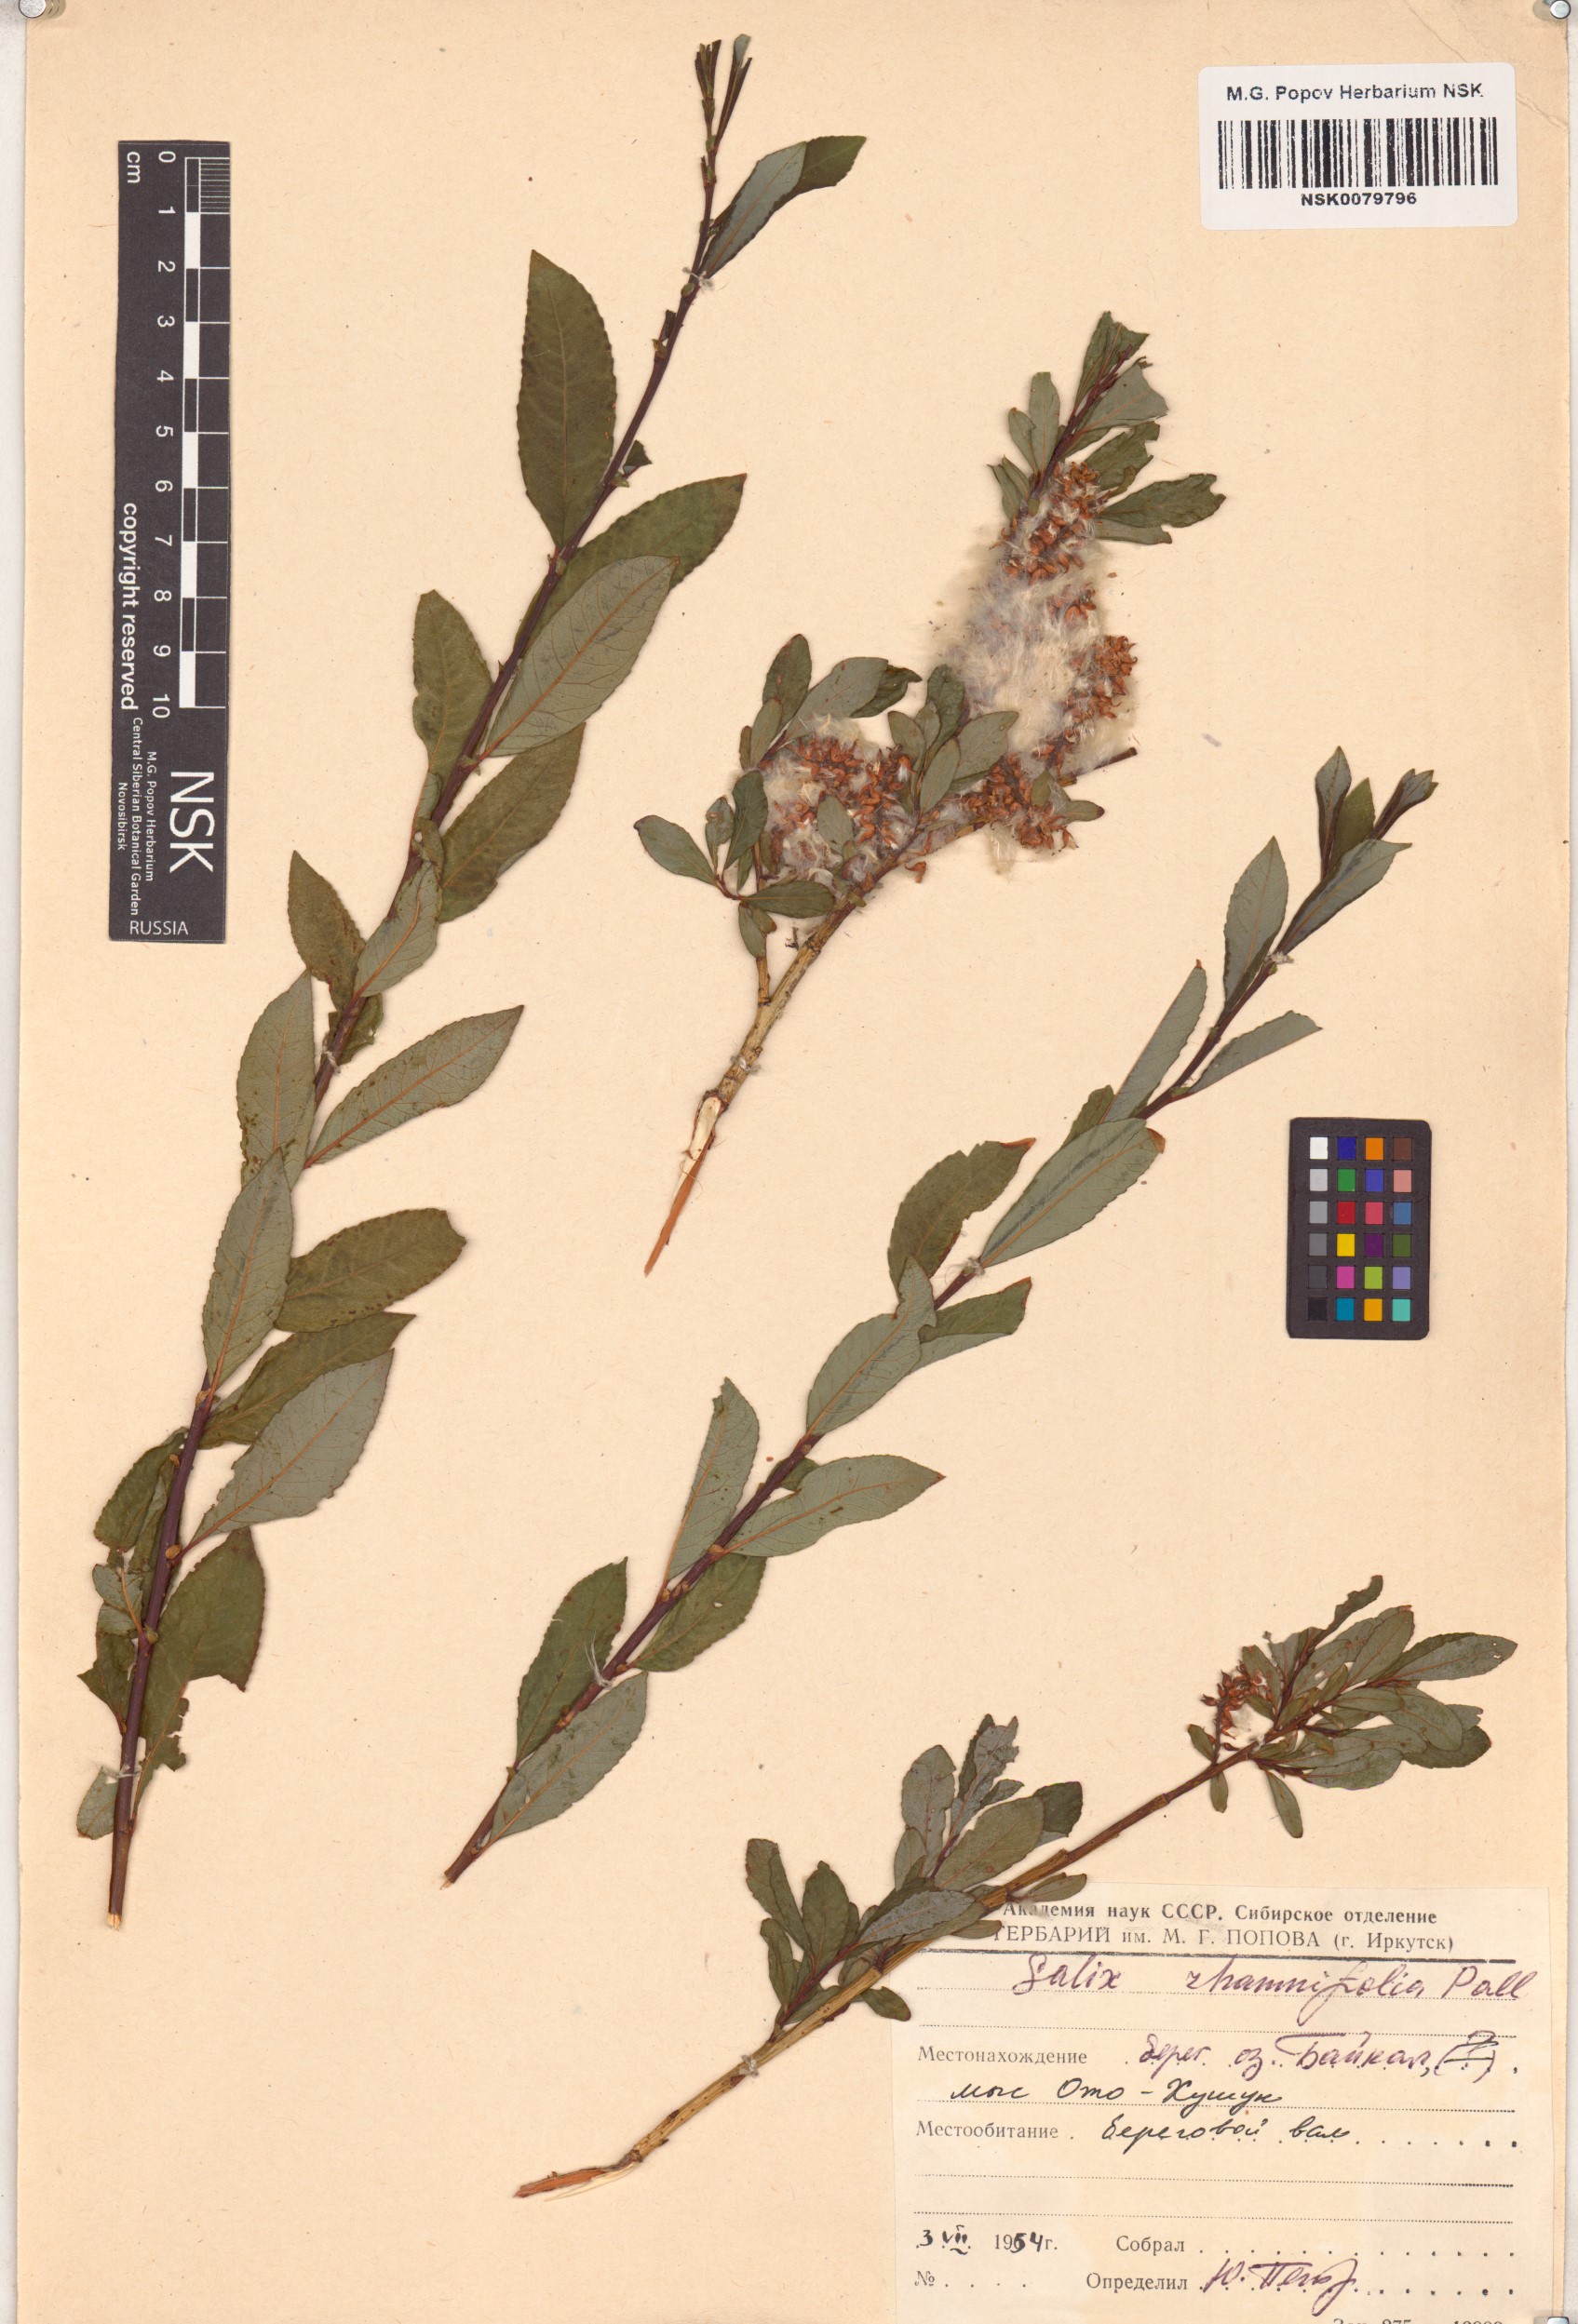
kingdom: Plantae
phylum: Tracheophyta
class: Magnoliopsida
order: Malpighiales
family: Salicaceae
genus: Salix
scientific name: Salix rhamnifolia
